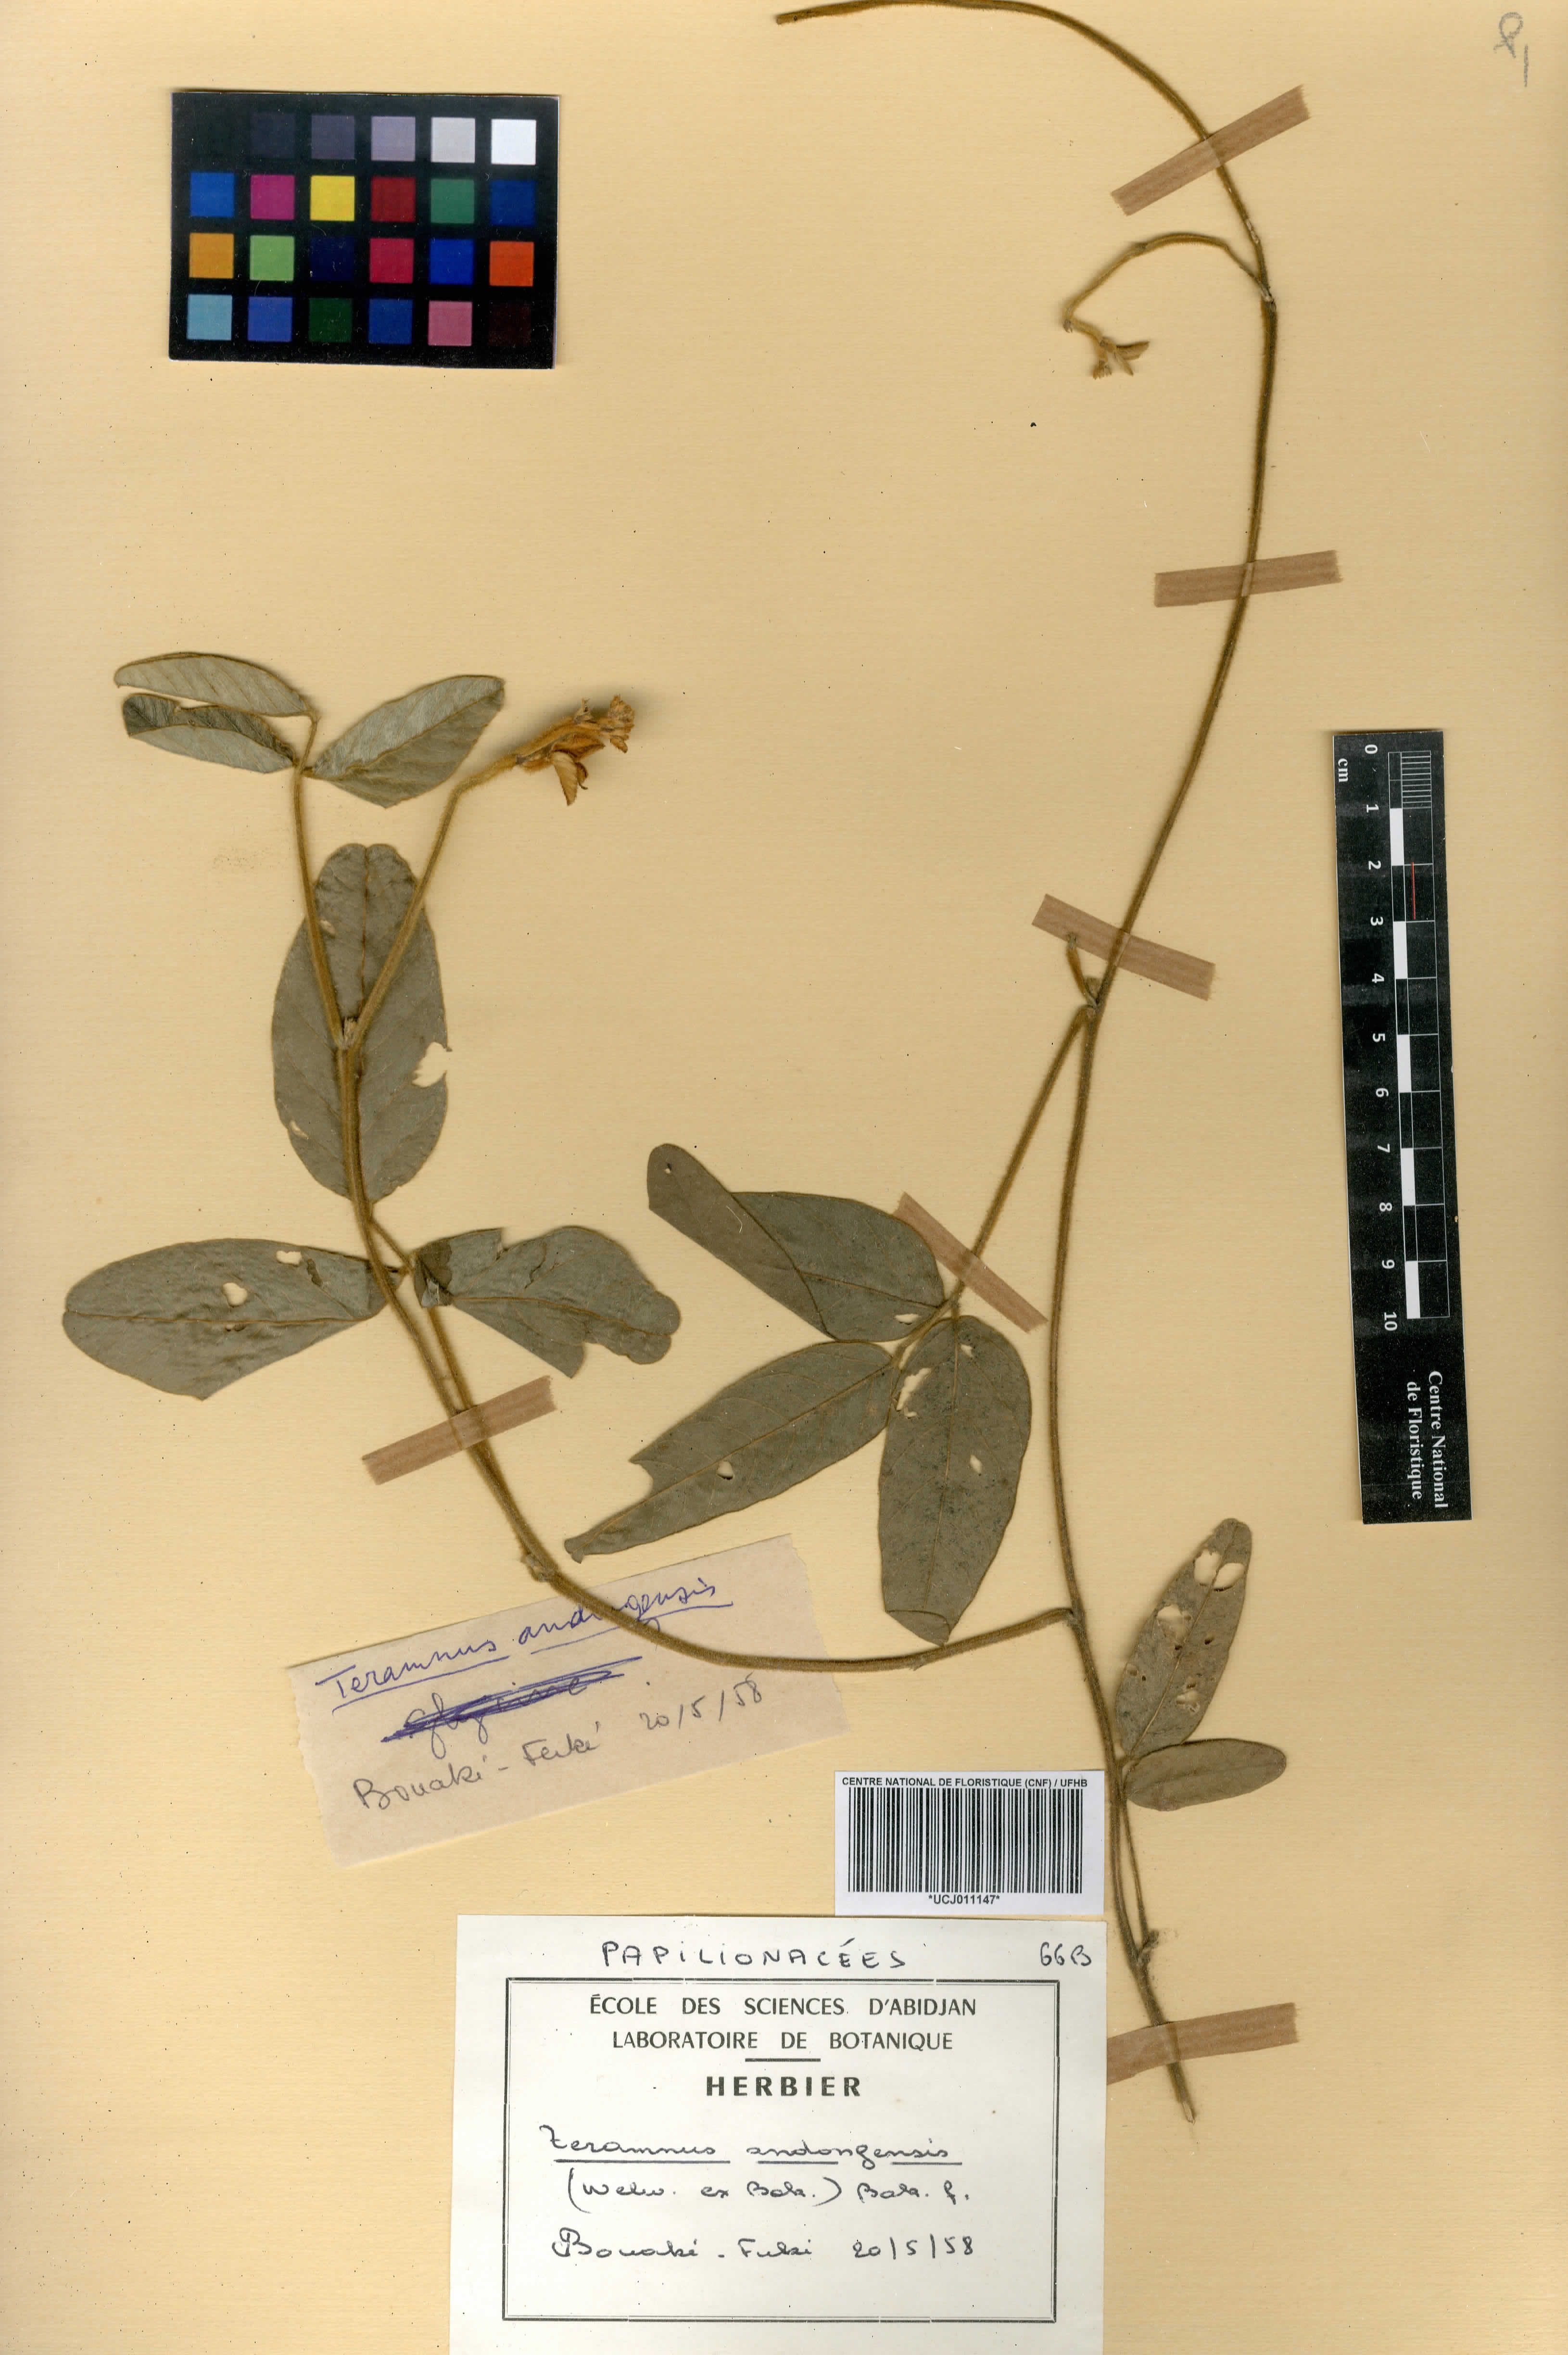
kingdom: Plantae
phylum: Tracheophyta
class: Magnoliopsida
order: Fabales
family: Fabaceae
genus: Teramnus
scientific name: Teramnus uncinatus
